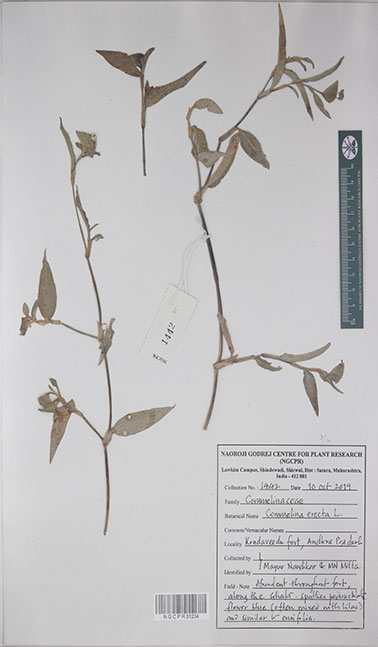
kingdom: Plantae
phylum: Tracheophyta
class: Liliopsida
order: Commelinales
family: Commelinaceae
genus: Commelina
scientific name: Commelina erecta
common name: Blousel blommetjie
